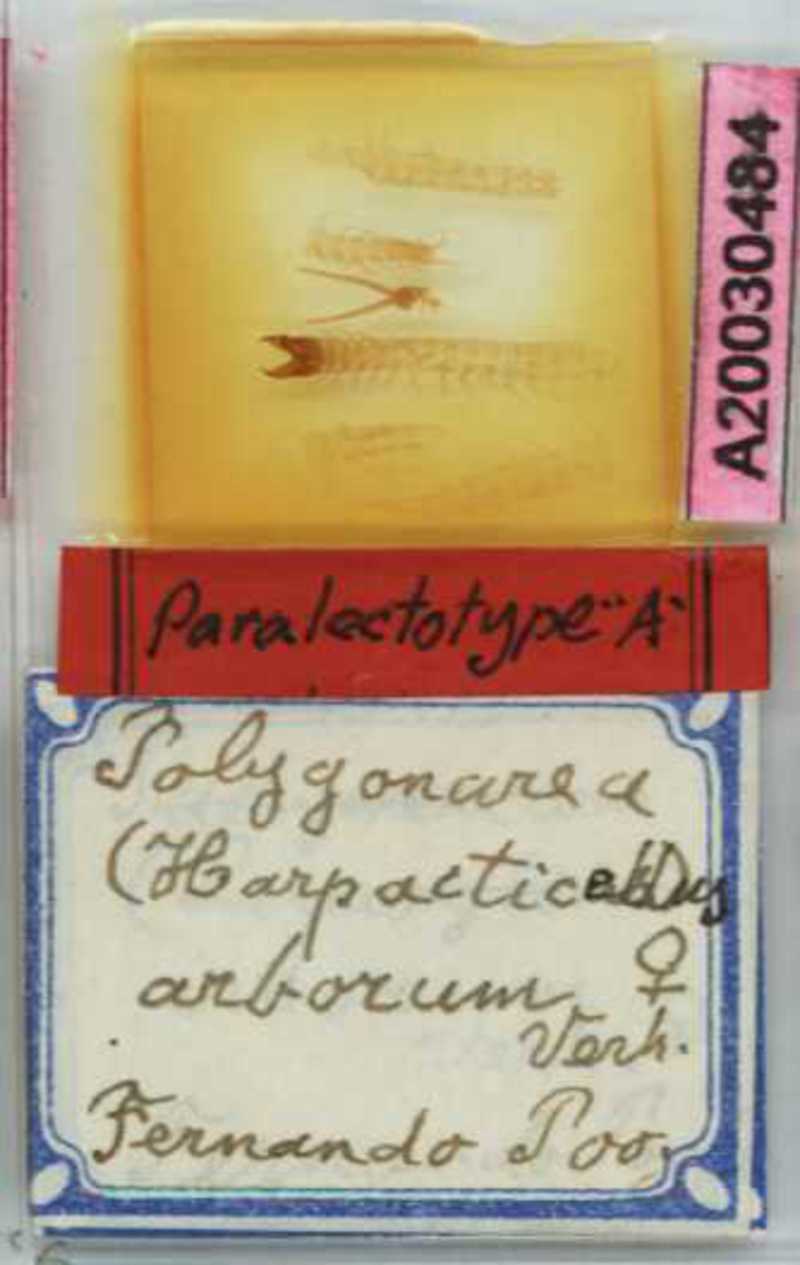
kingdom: Animalia
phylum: Arthropoda
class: Chilopoda
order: Geophilomorpha
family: Geophilidae
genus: Polygonarea
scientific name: Polygonarea
